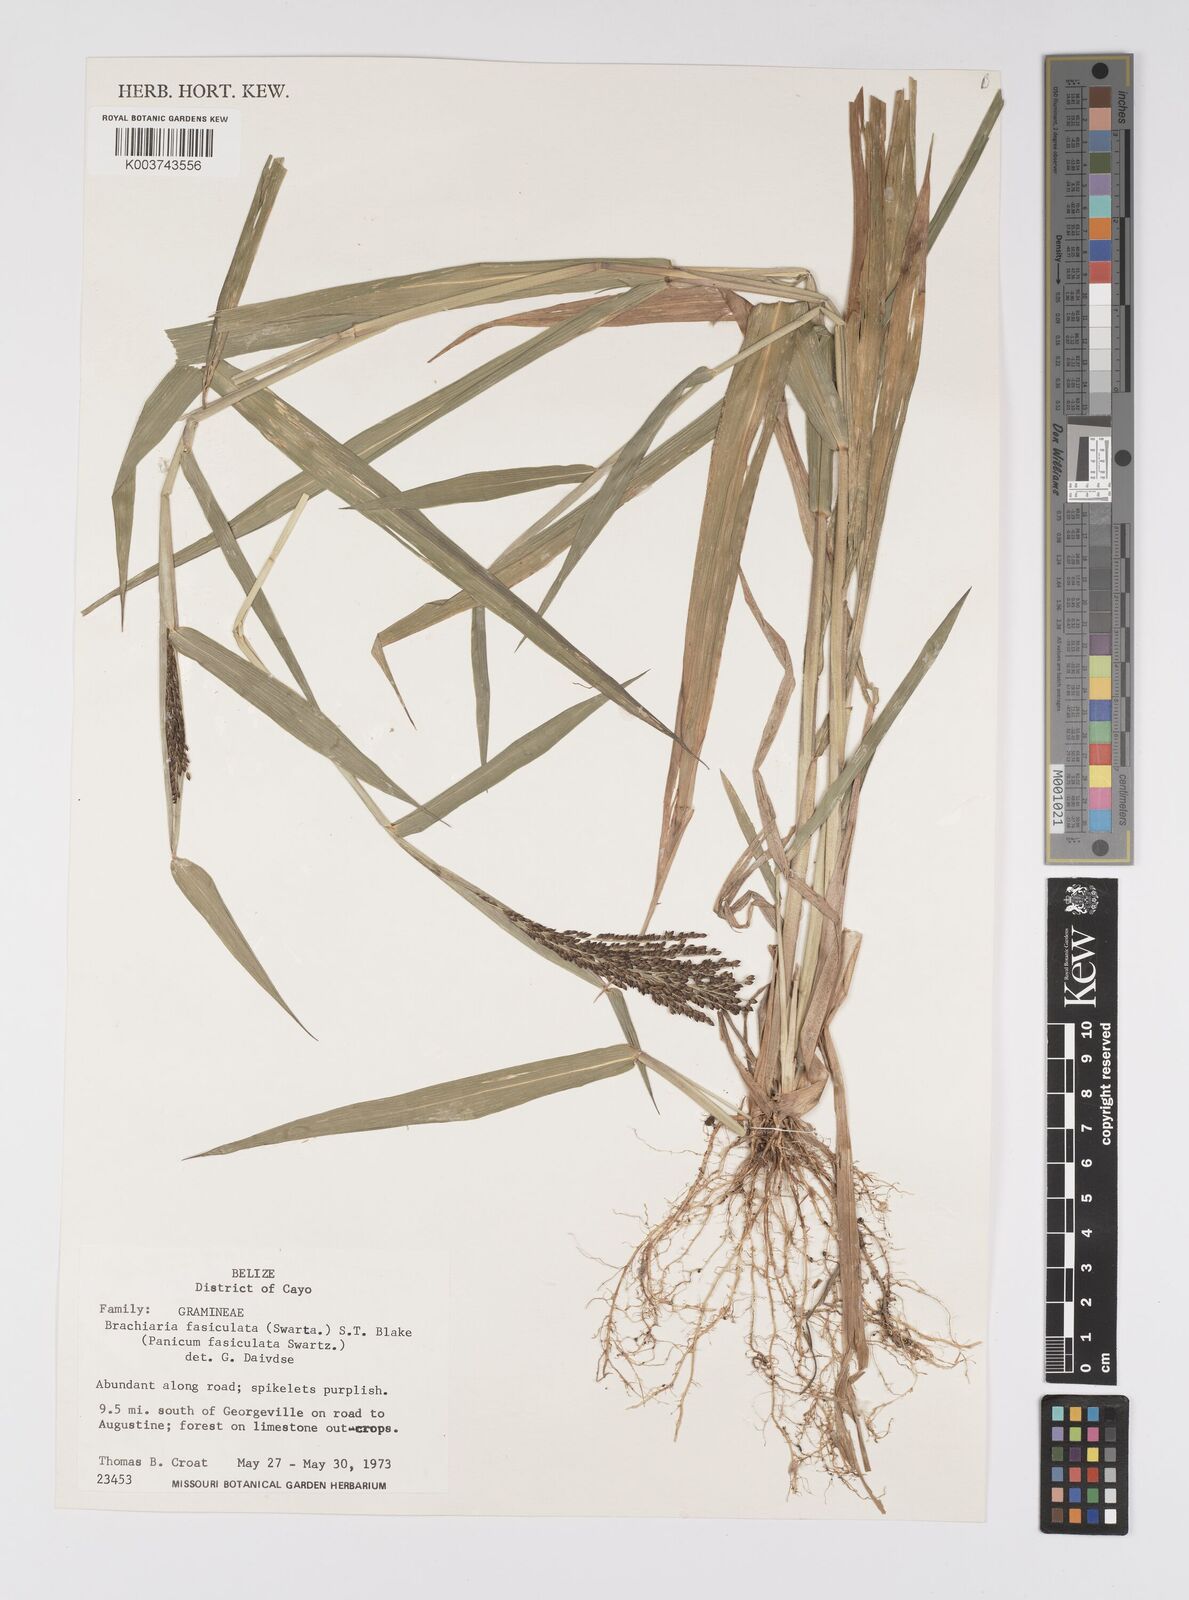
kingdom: Plantae
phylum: Tracheophyta
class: Liliopsida
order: Poales
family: Poaceae
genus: Urochloa
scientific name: Urochloa fusca
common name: Browntop signal grass
